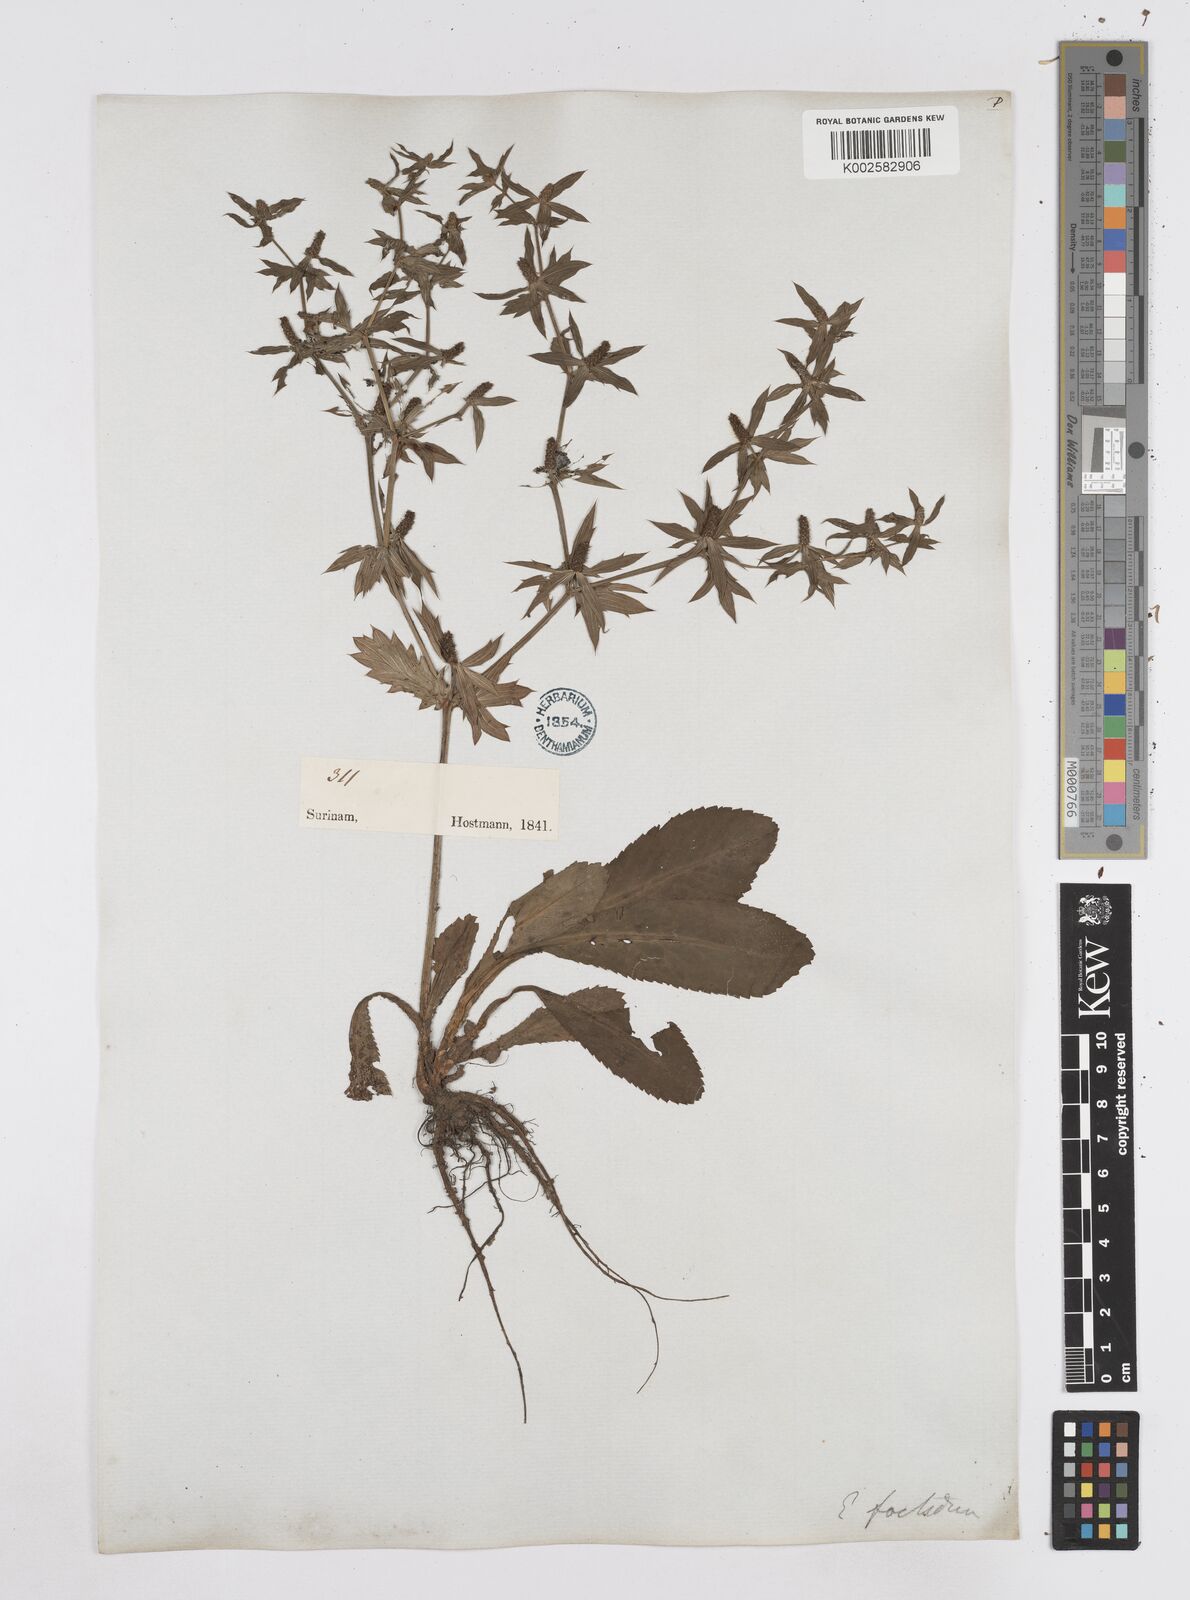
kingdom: Plantae
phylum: Tracheophyta
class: Magnoliopsida
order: Apiales
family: Apiaceae
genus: Eryngium
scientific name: Eryngium foetidum
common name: Fitweed
